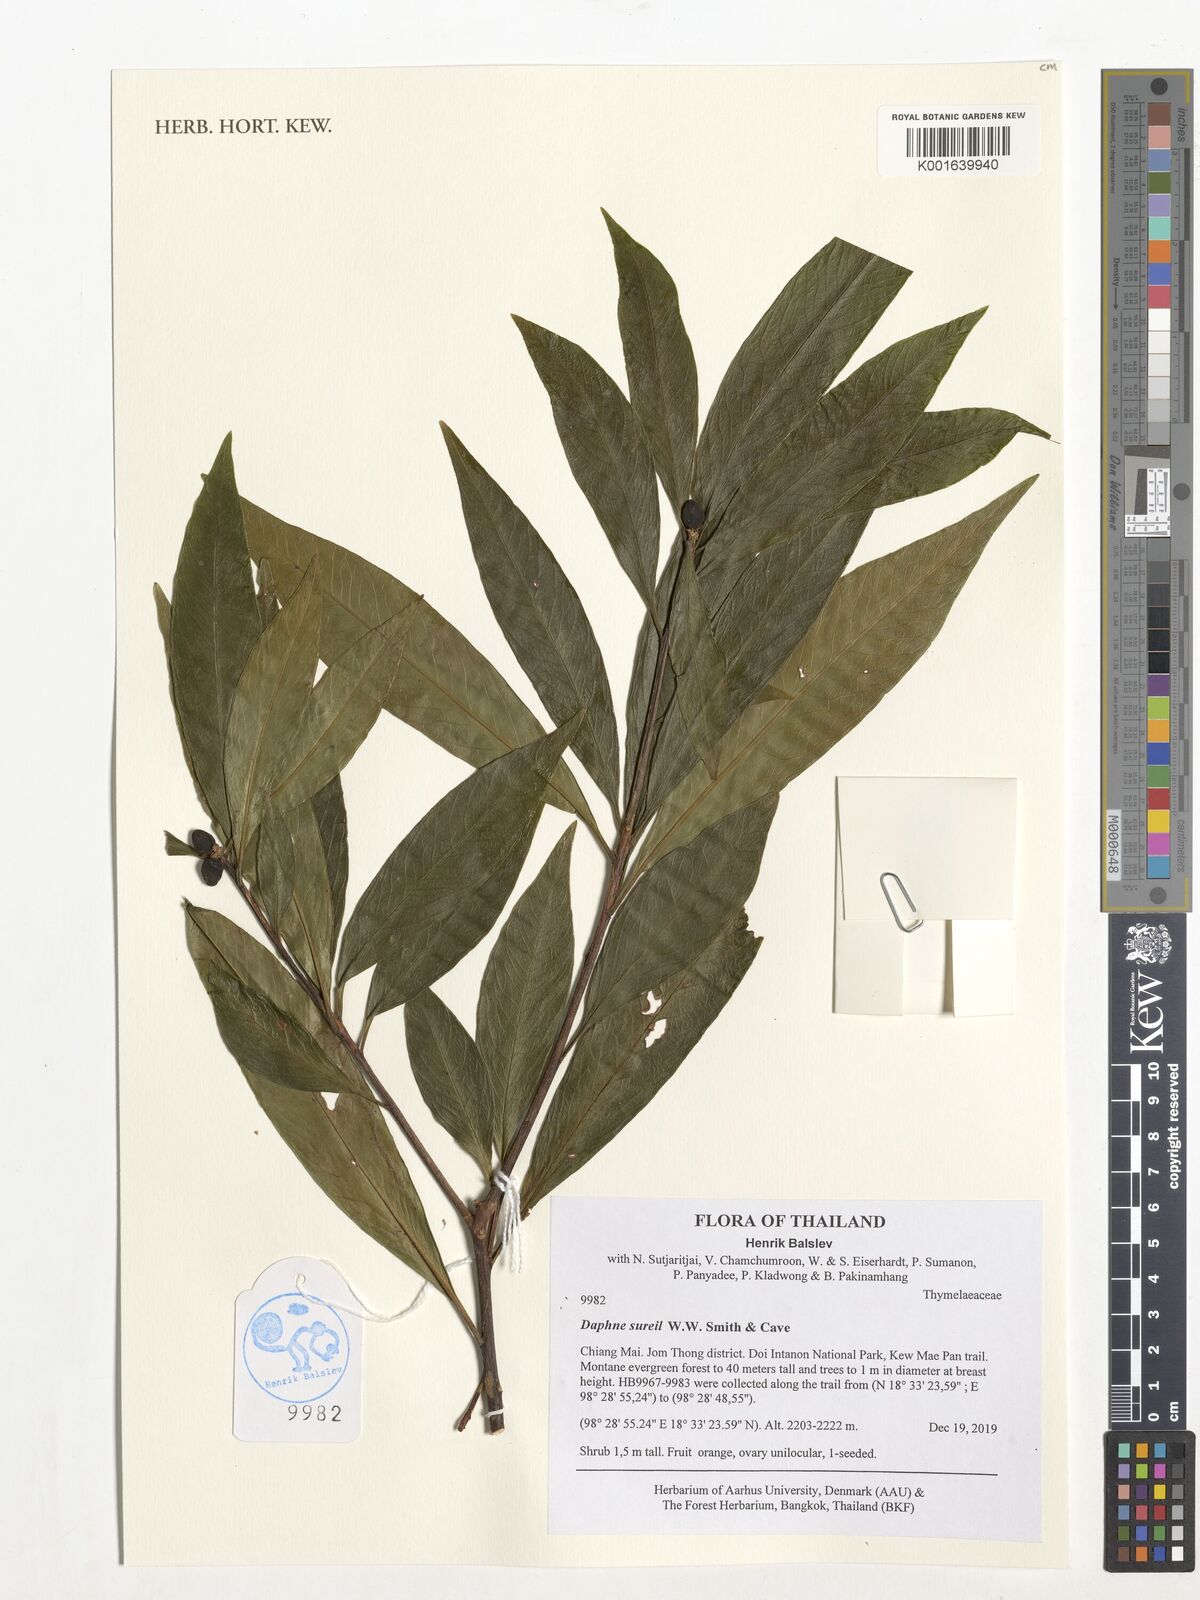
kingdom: Plantae
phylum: Tracheophyta
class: Magnoliopsida
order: Malvales
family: Thymelaeaceae
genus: Daphne
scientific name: Daphne sureil
